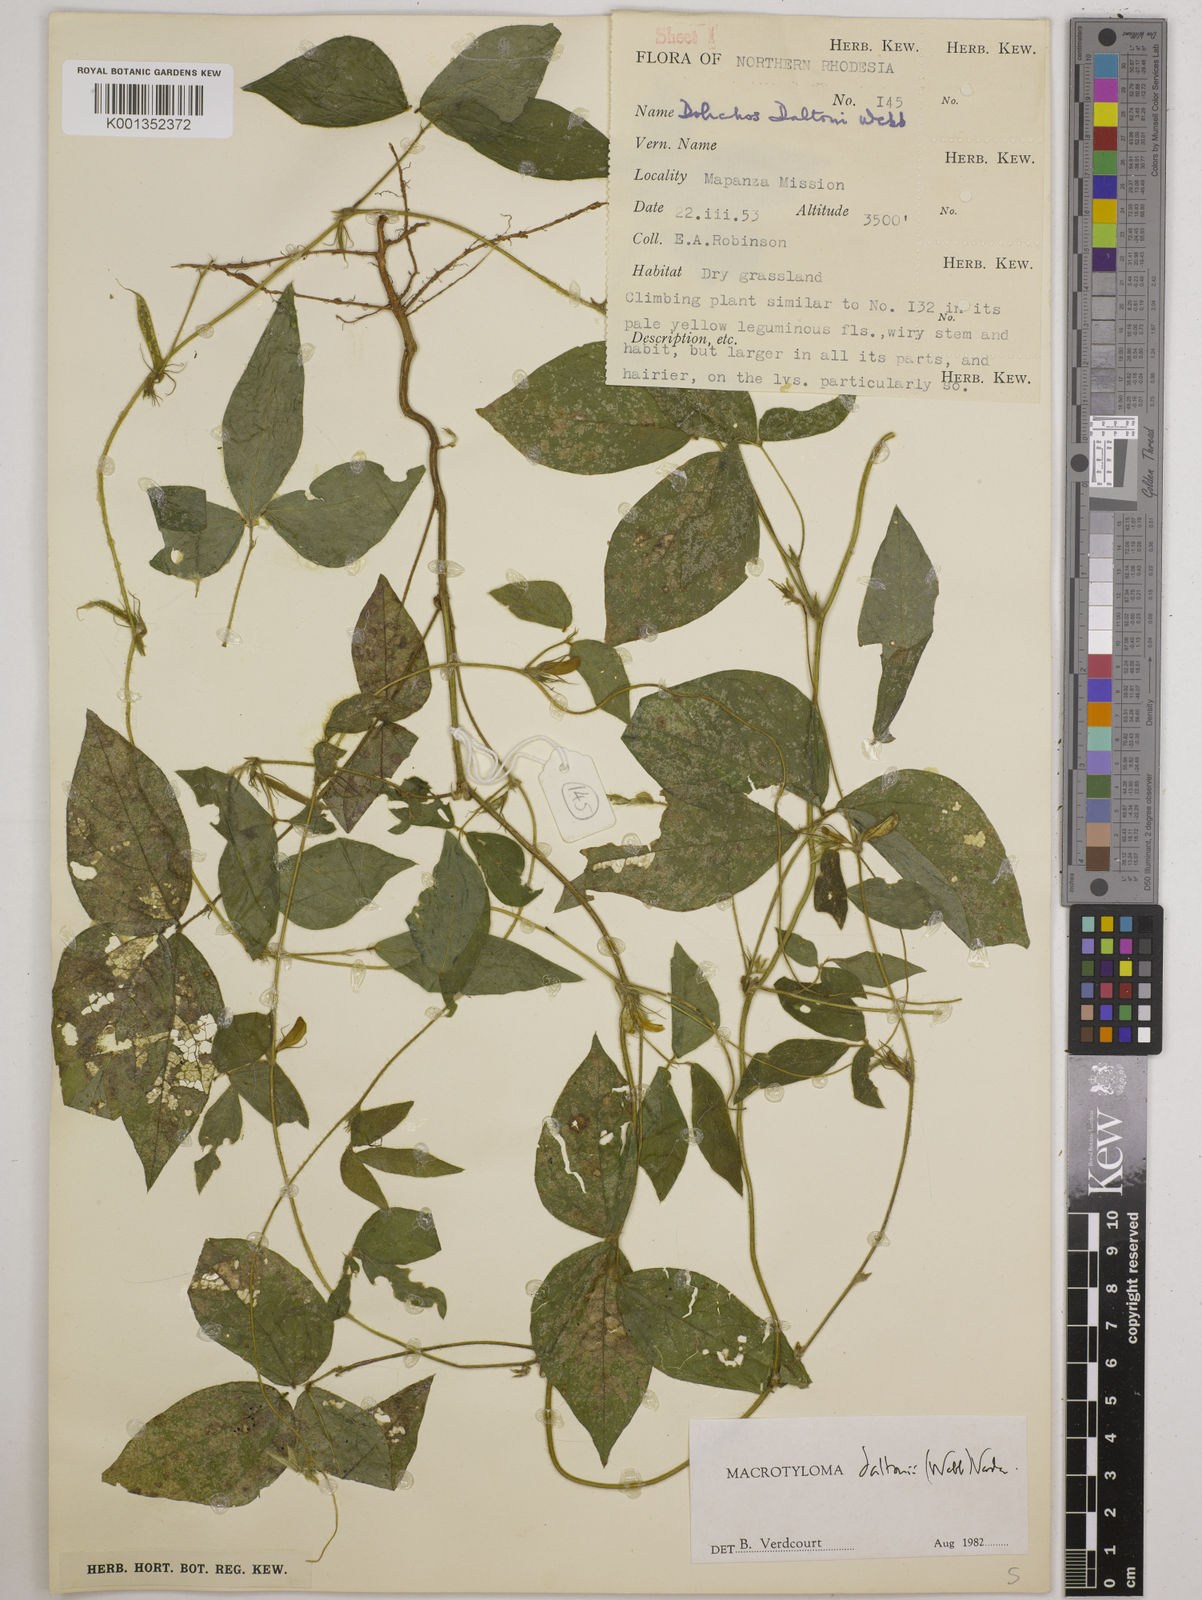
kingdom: Plantae
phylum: Tracheophyta
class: Magnoliopsida
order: Fabales
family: Fabaceae
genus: Macrotyloma
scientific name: Macrotyloma daltonii
